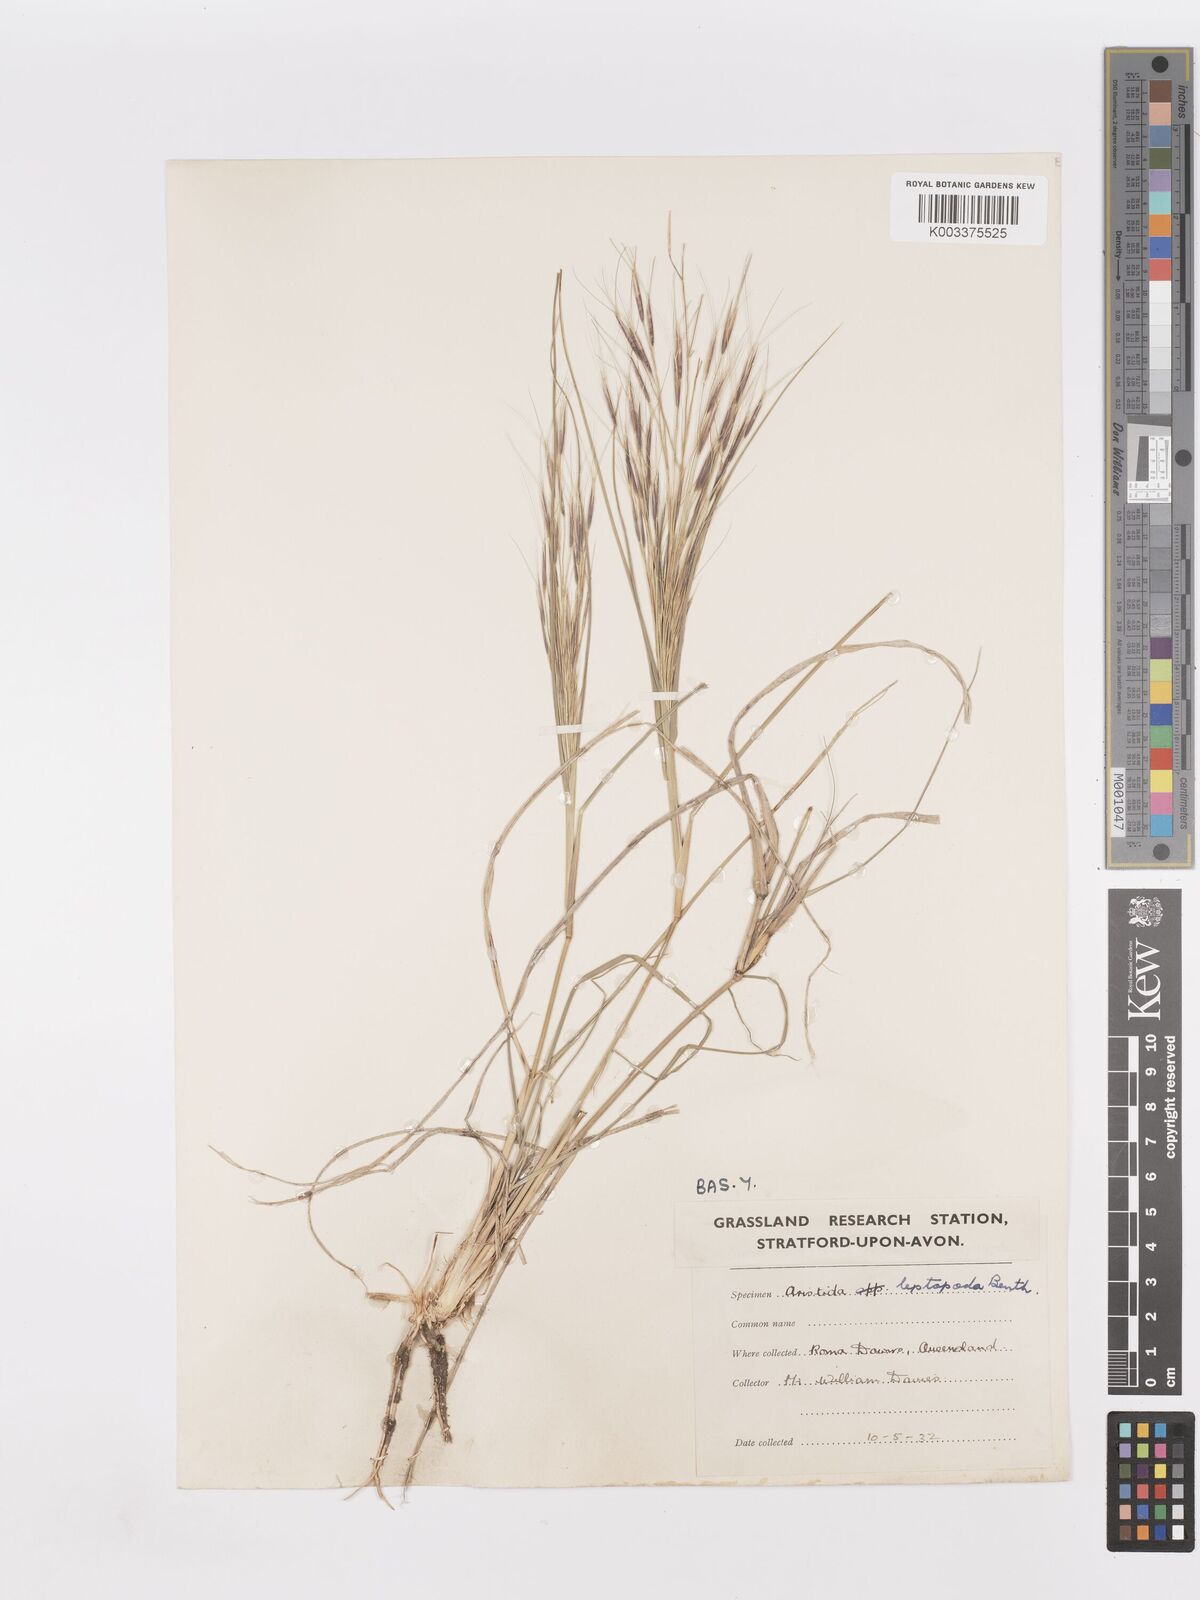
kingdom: Plantae
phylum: Tracheophyta
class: Liliopsida
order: Poales
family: Poaceae
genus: Aristida
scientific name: Aristida leptopoda
